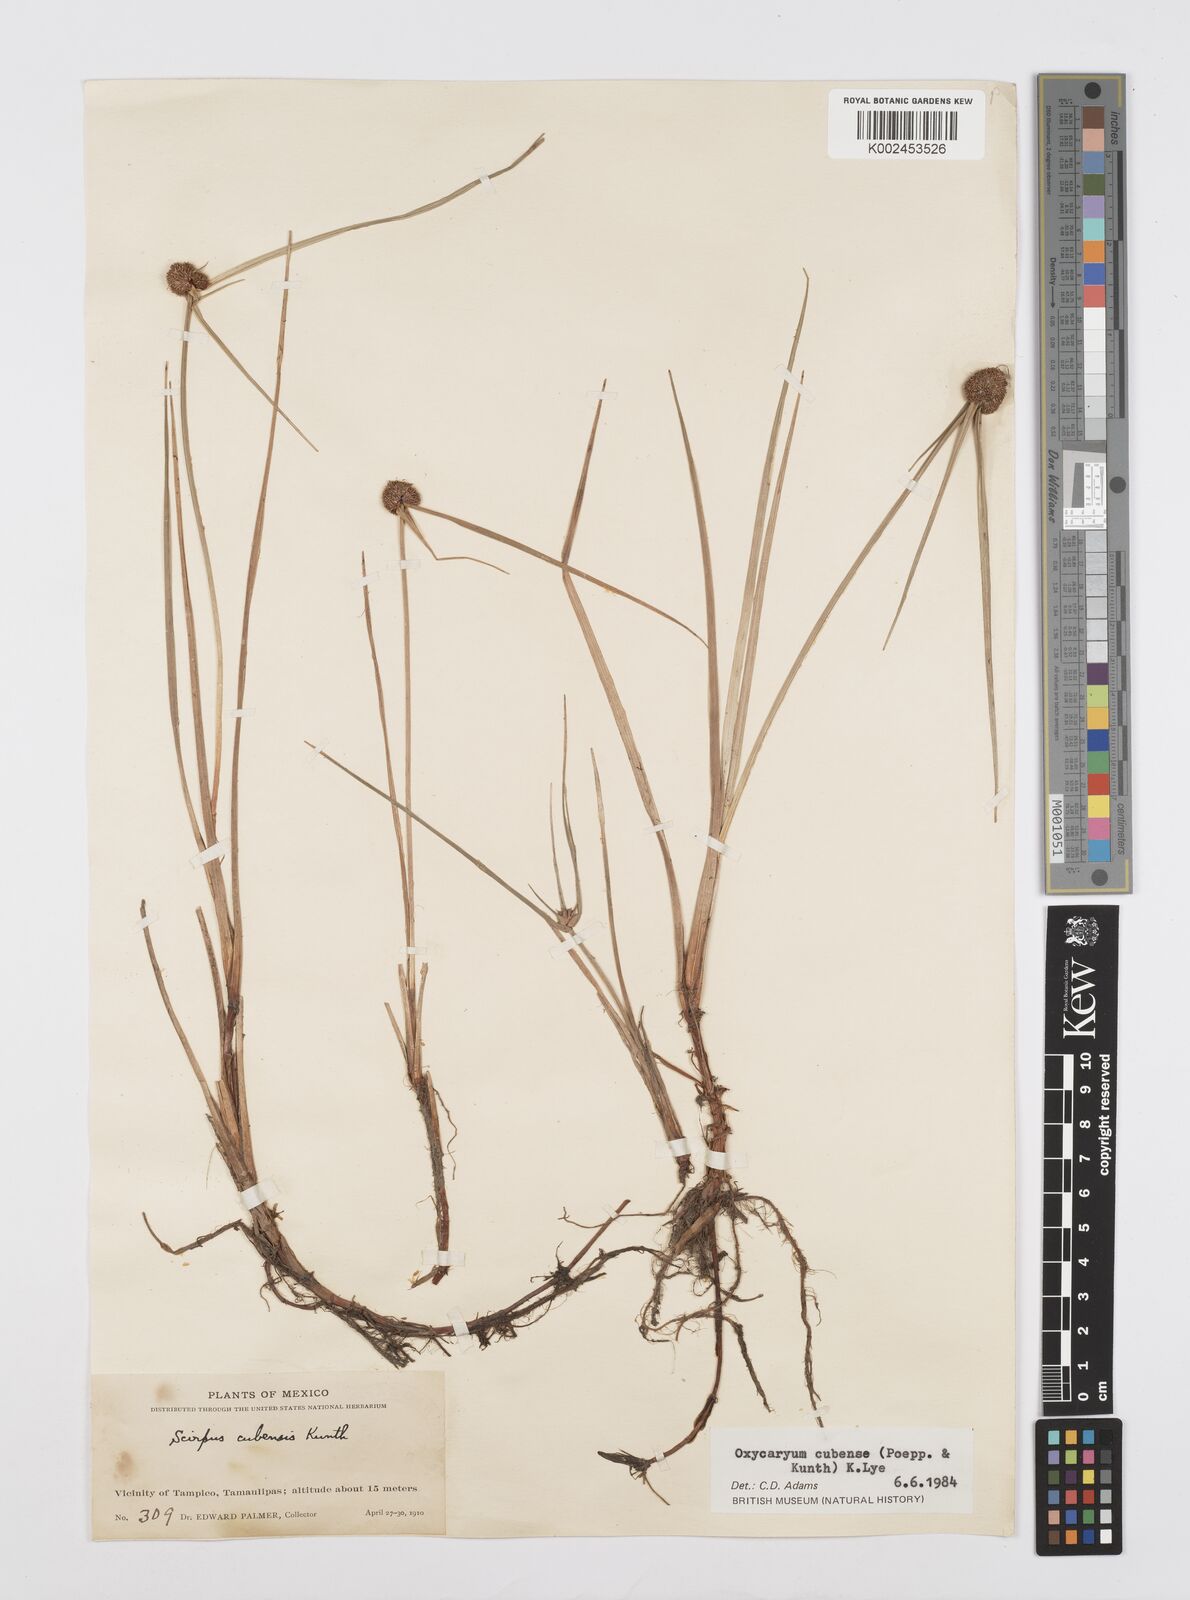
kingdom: Plantae
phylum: Tracheophyta
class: Liliopsida
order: Poales
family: Cyperaceae
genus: Cyperus
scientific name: Cyperus elegans
